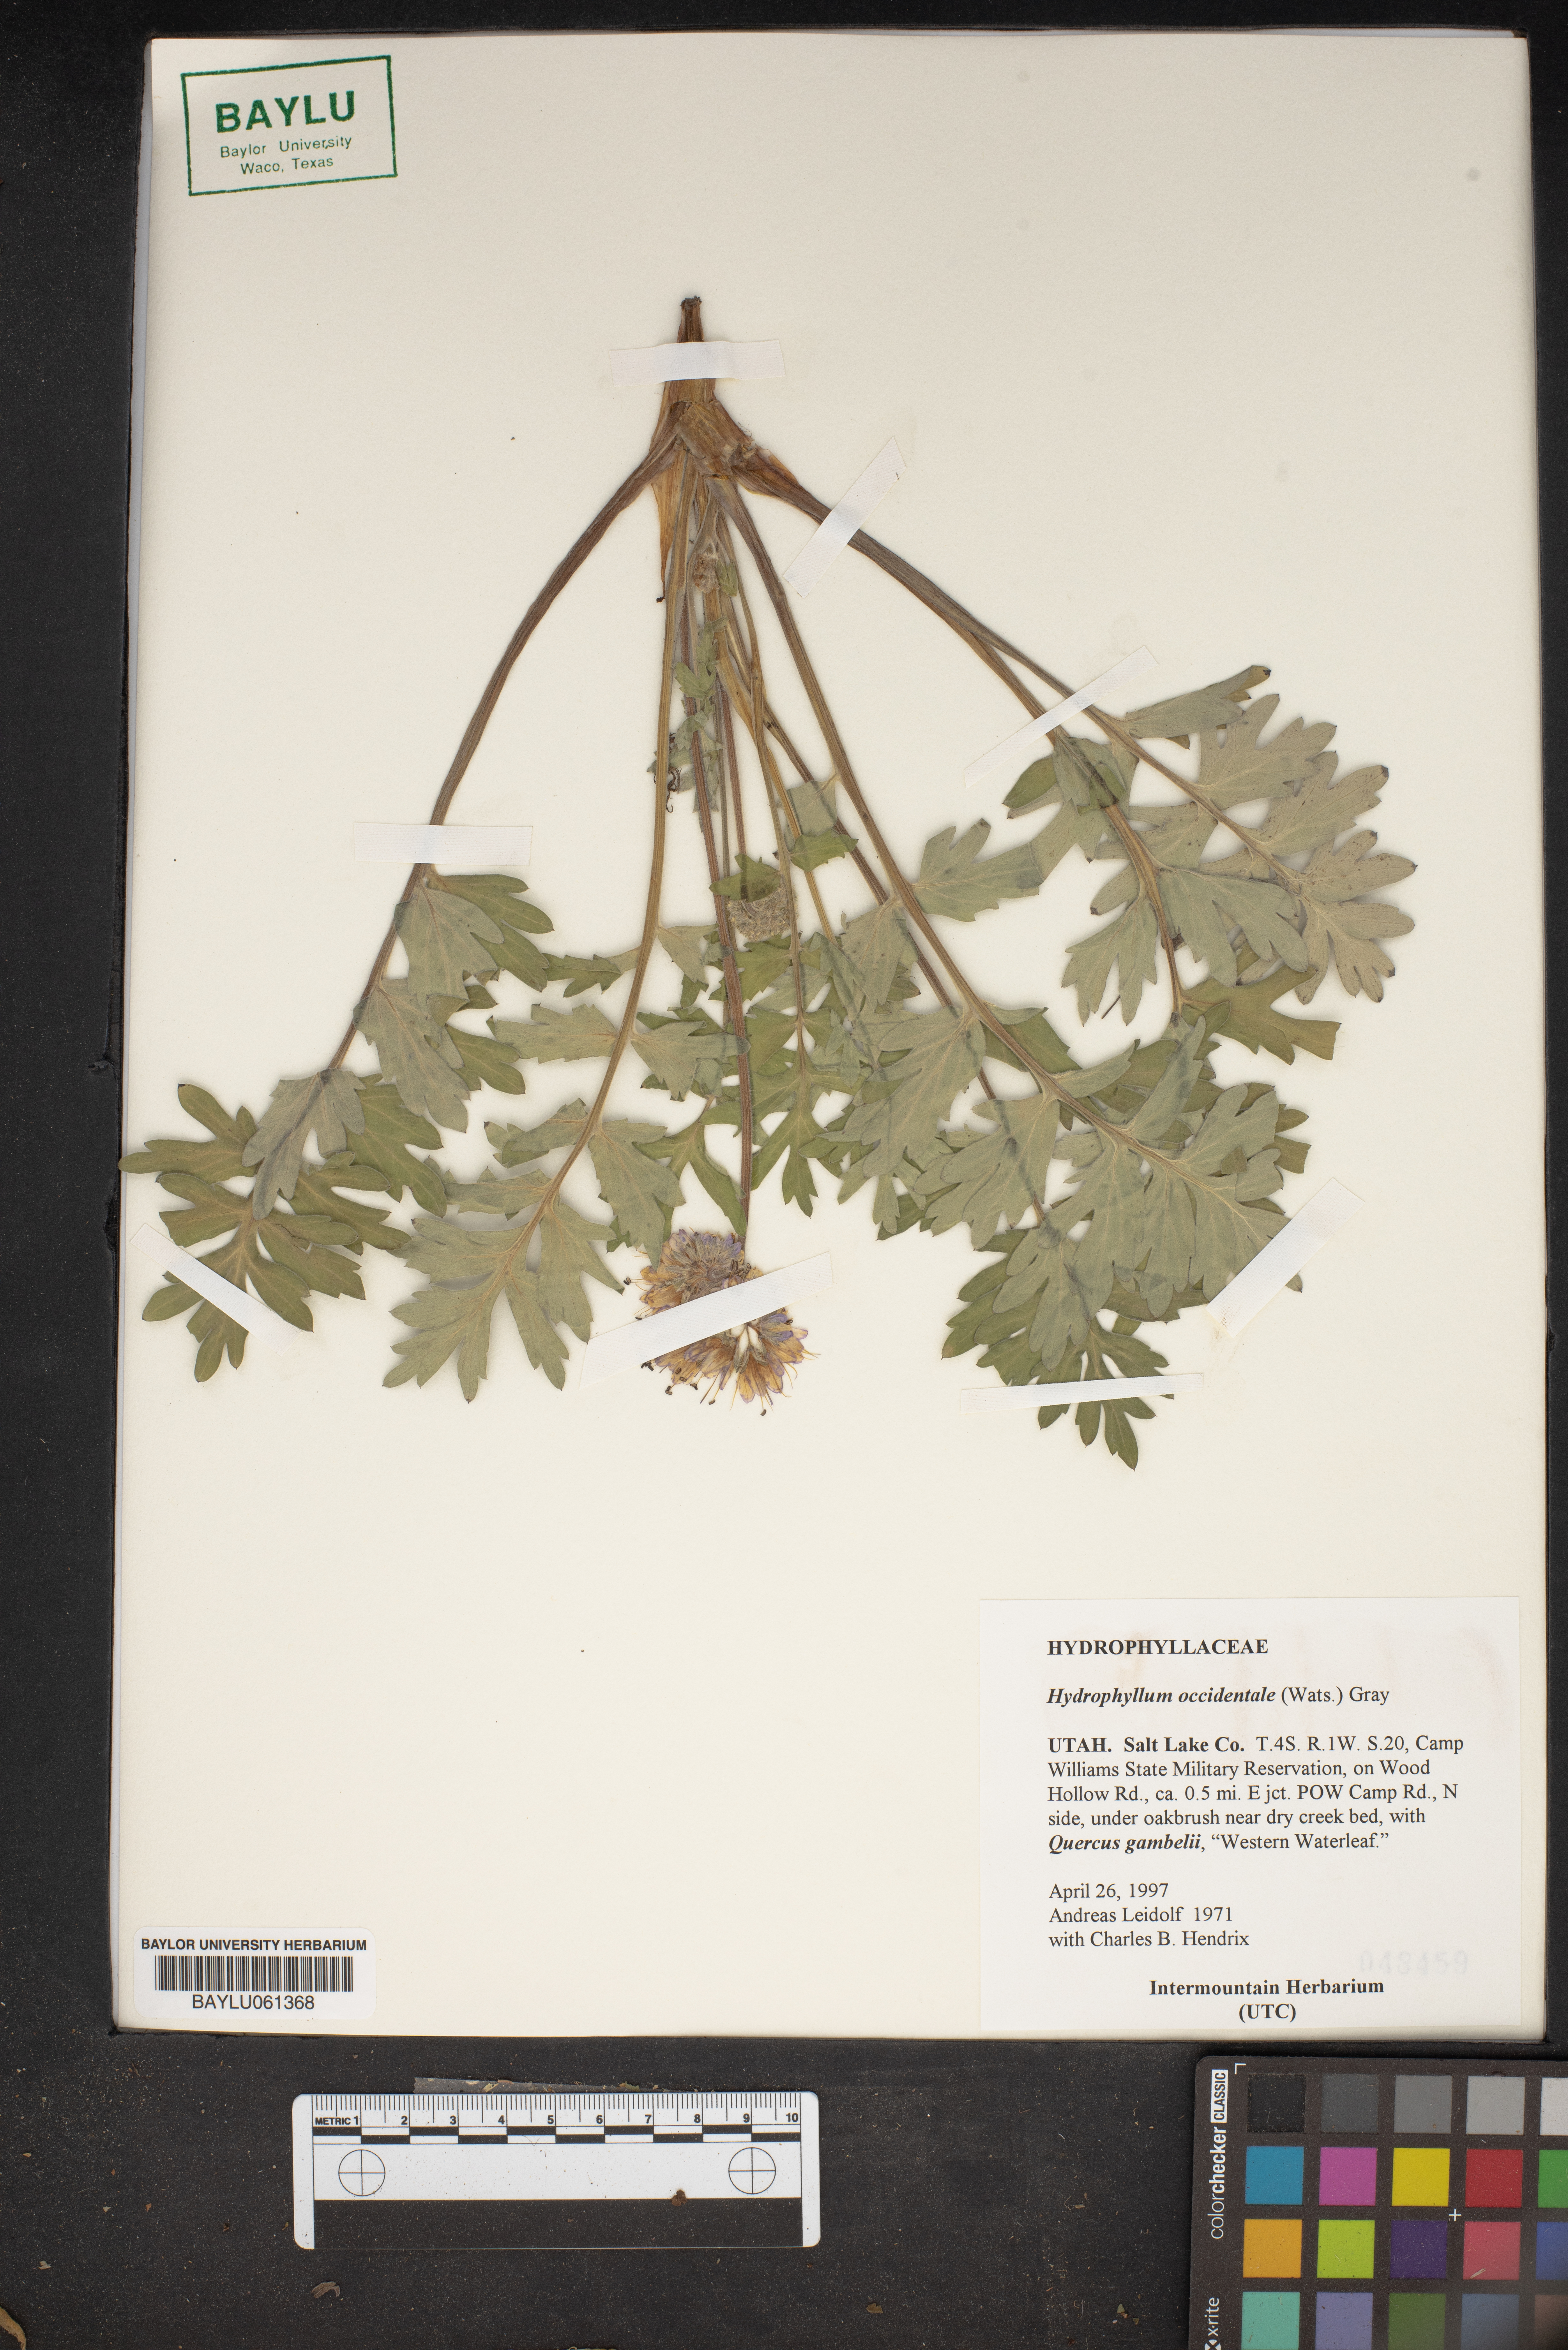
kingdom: Plantae
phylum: Tracheophyta
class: Magnoliopsida
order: Boraginales
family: Hydrophyllaceae
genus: Hydrophyllum
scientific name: Hydrophyllum occidentale
